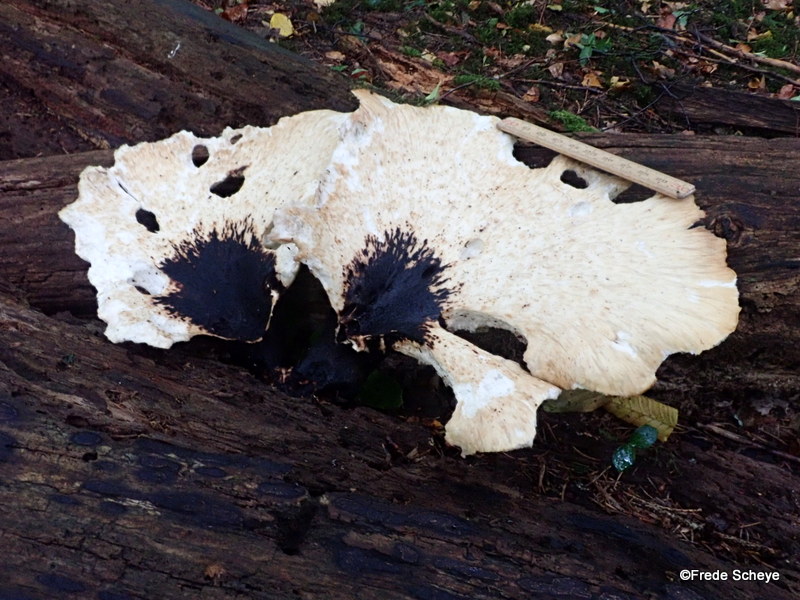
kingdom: Fungi
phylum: Basidiomycota
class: Agaricomycetes
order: Polyporales
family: Polyporaceae
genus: Cerioporus
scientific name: Cerioporus squamosus
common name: skællet stilkporesvamp
